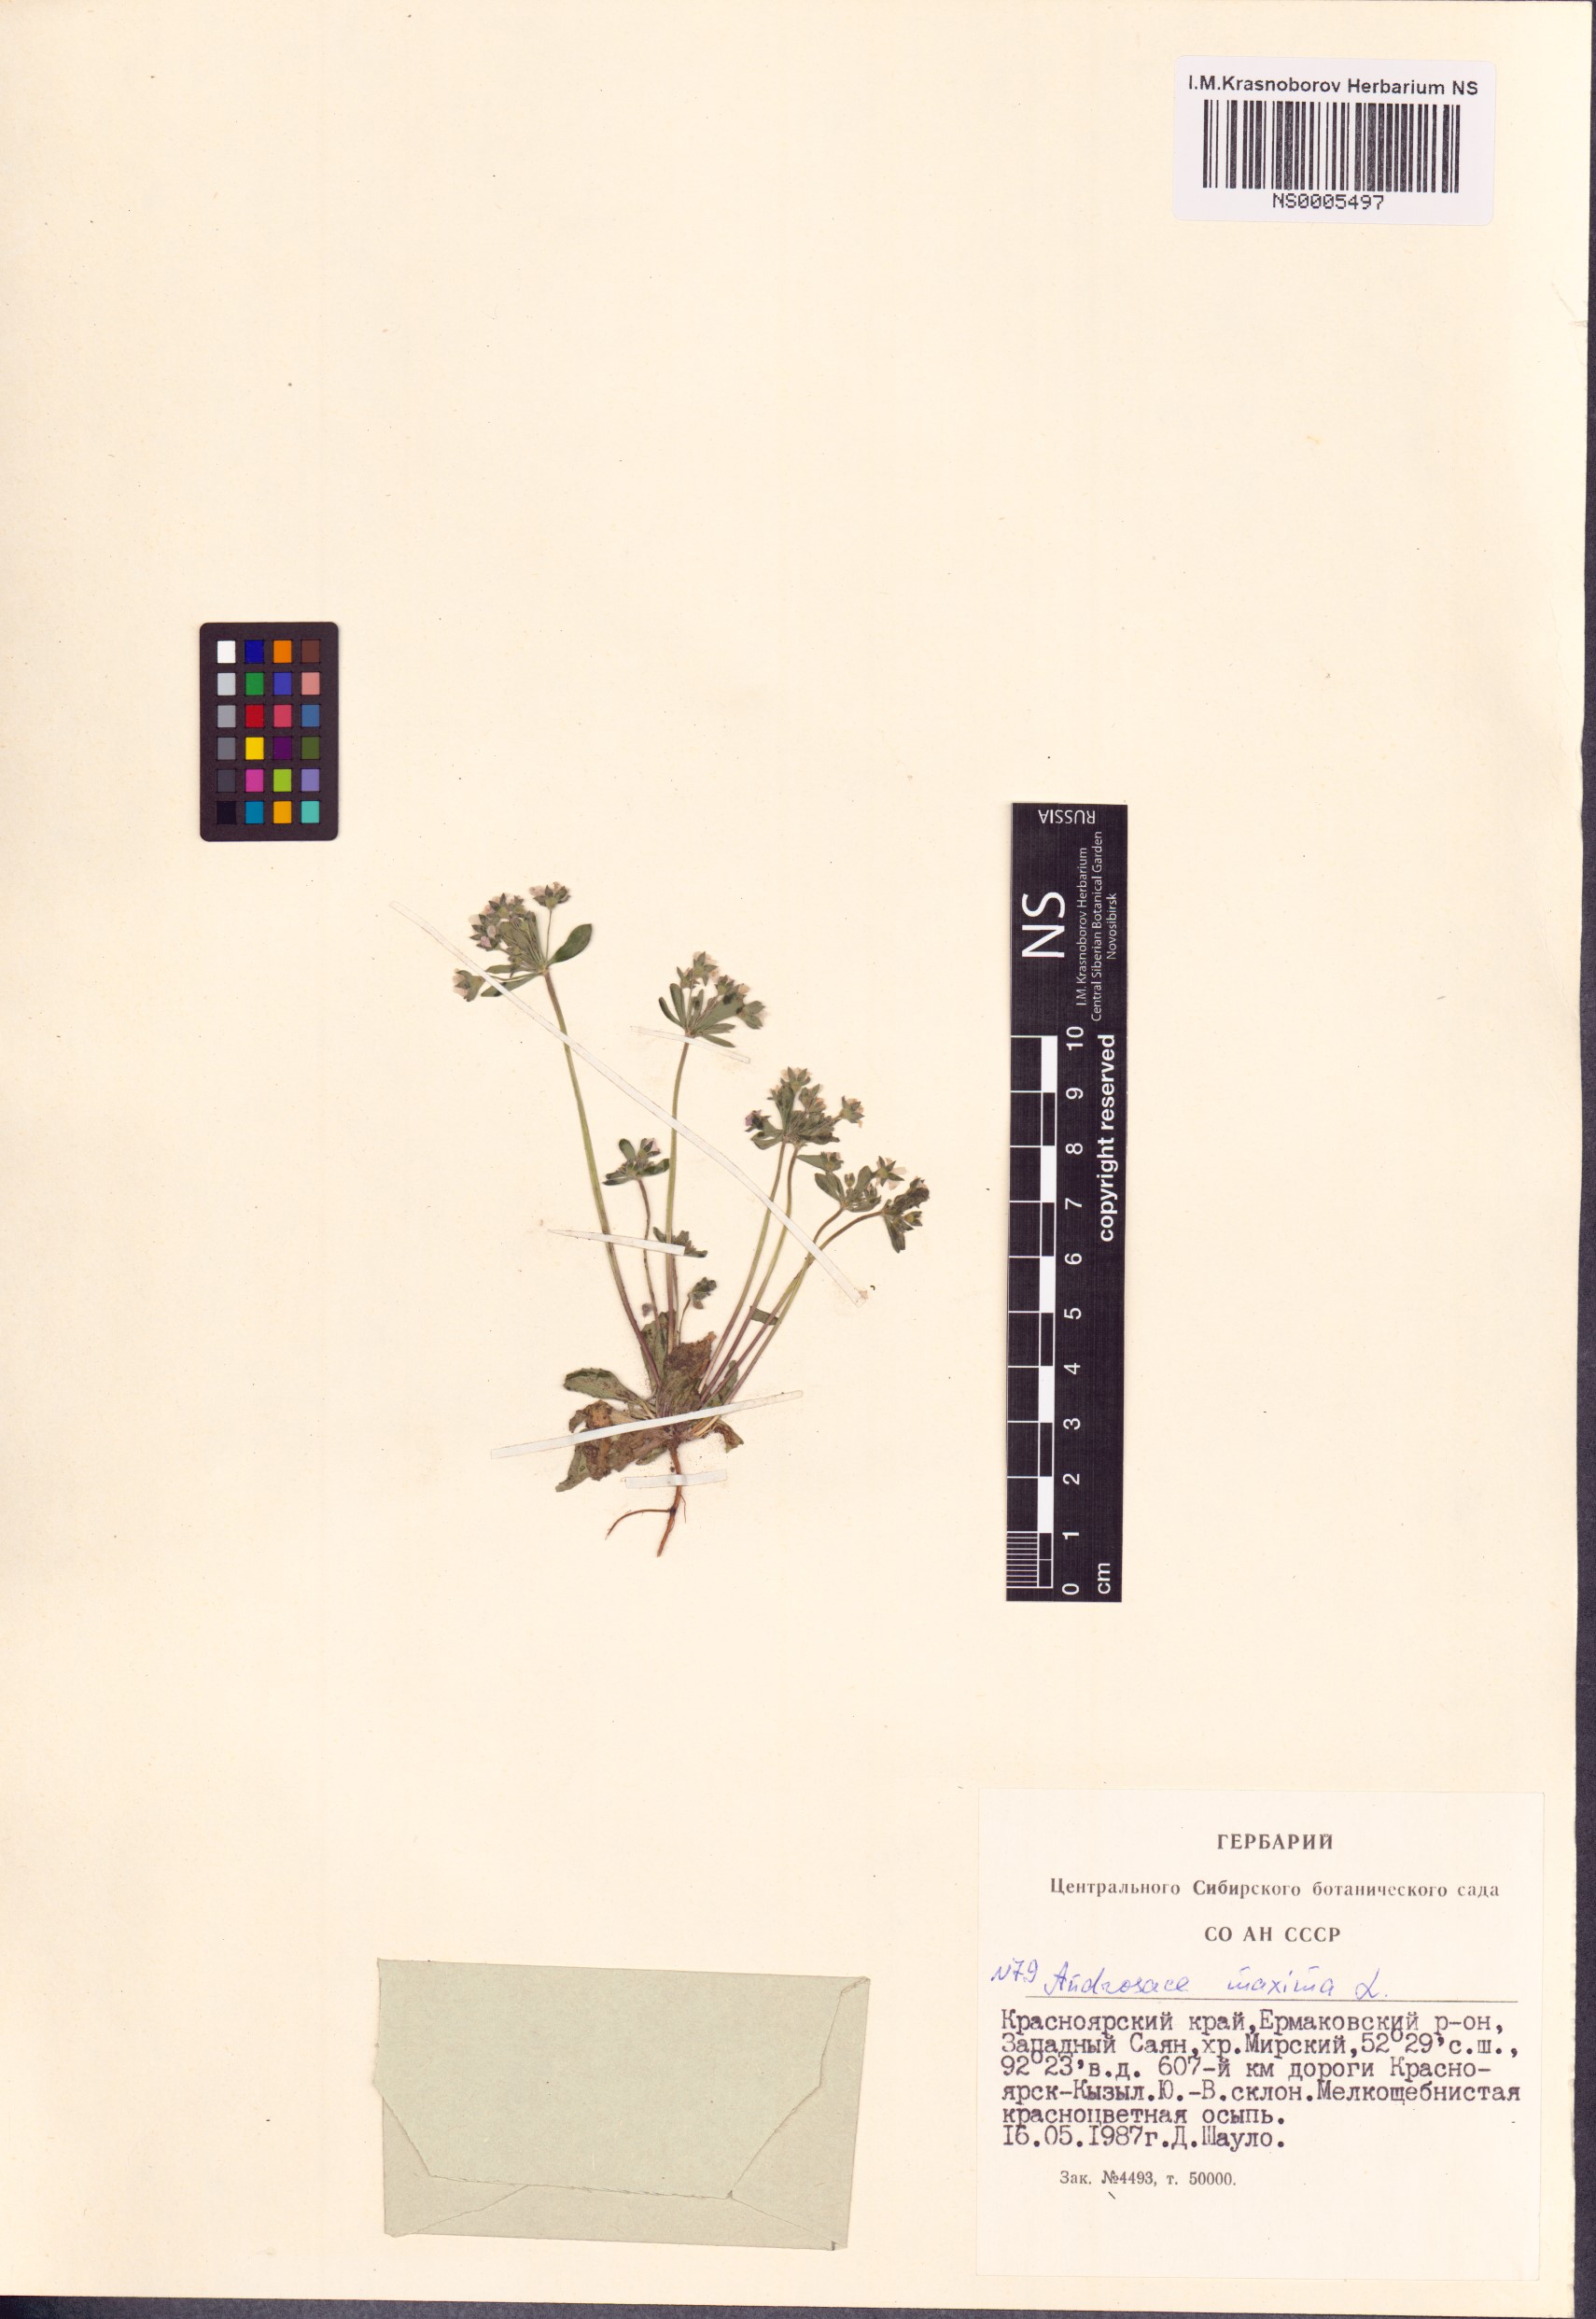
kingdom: Plantae
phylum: Tracheophyta
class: Magnoliopsida
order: Ericales
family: Primulaceae
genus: Androsace
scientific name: Androsace maxima
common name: Annual androsace
